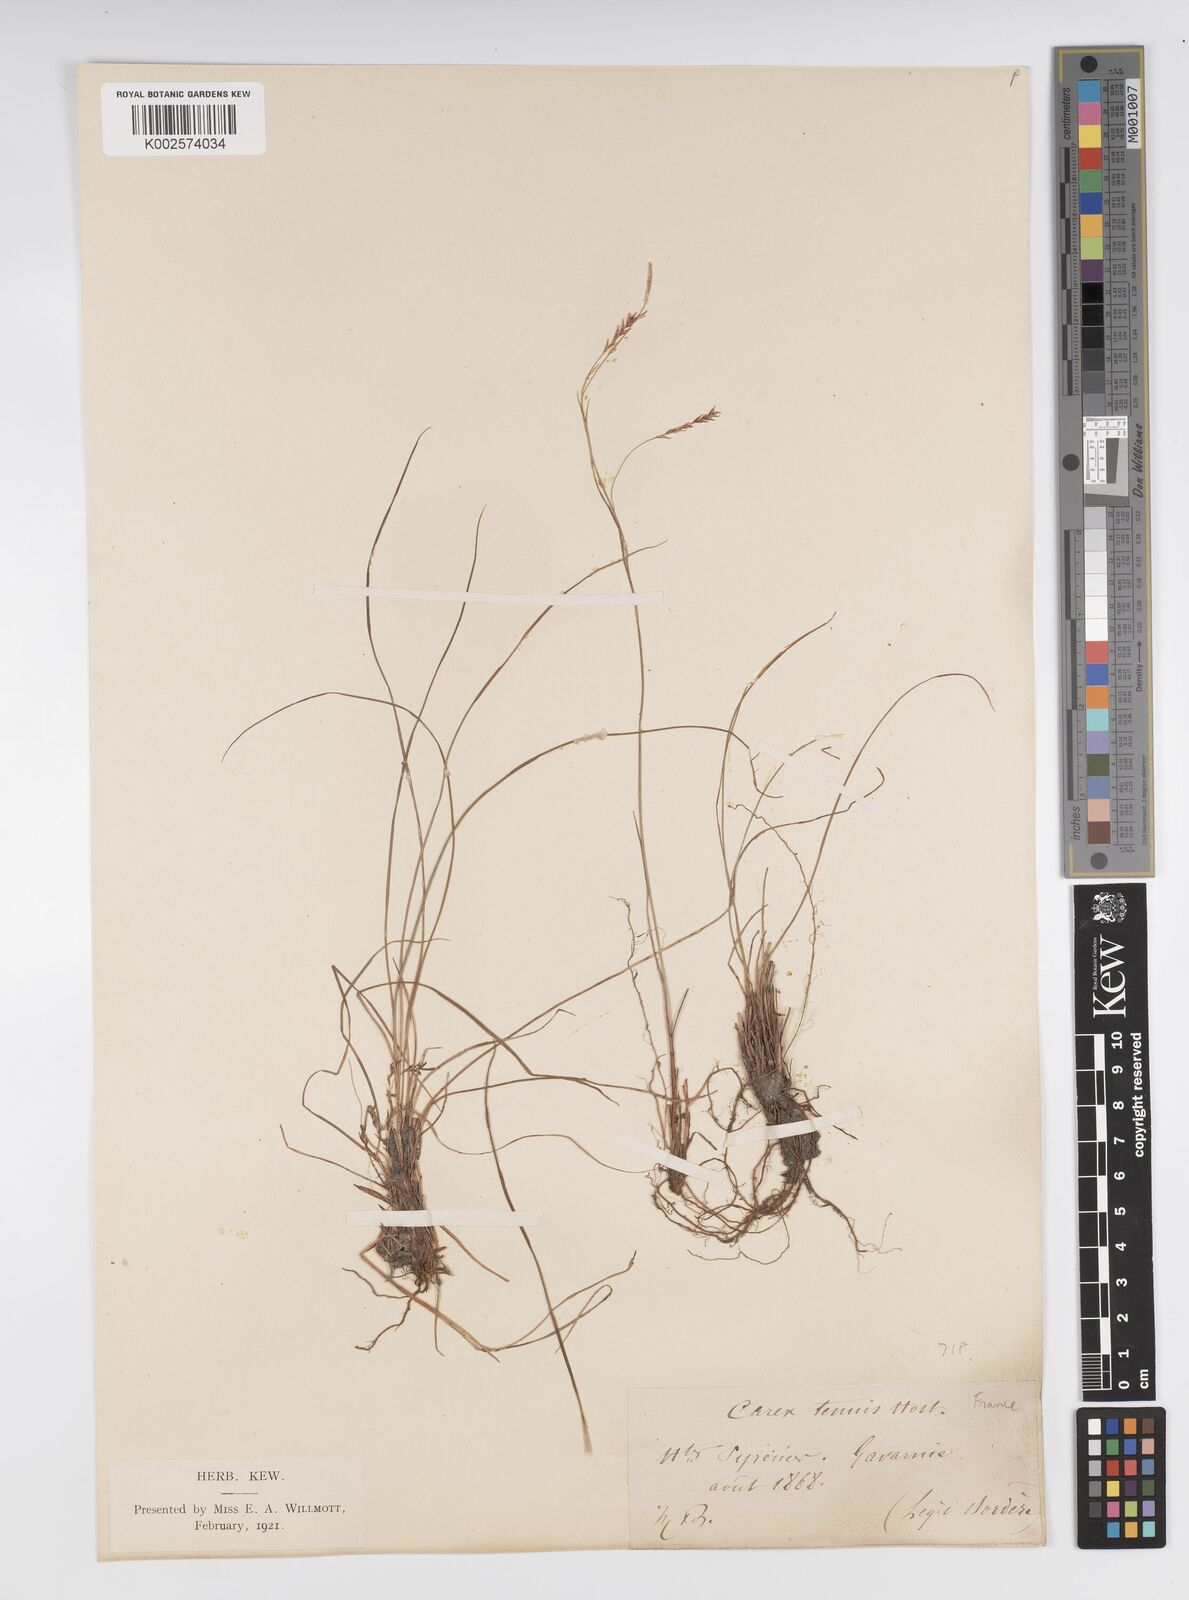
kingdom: Plantae
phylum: Tracheophyta
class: Liliopsida
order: Poales
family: Cyperaceae
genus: Carex
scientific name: Carex brachystachys
